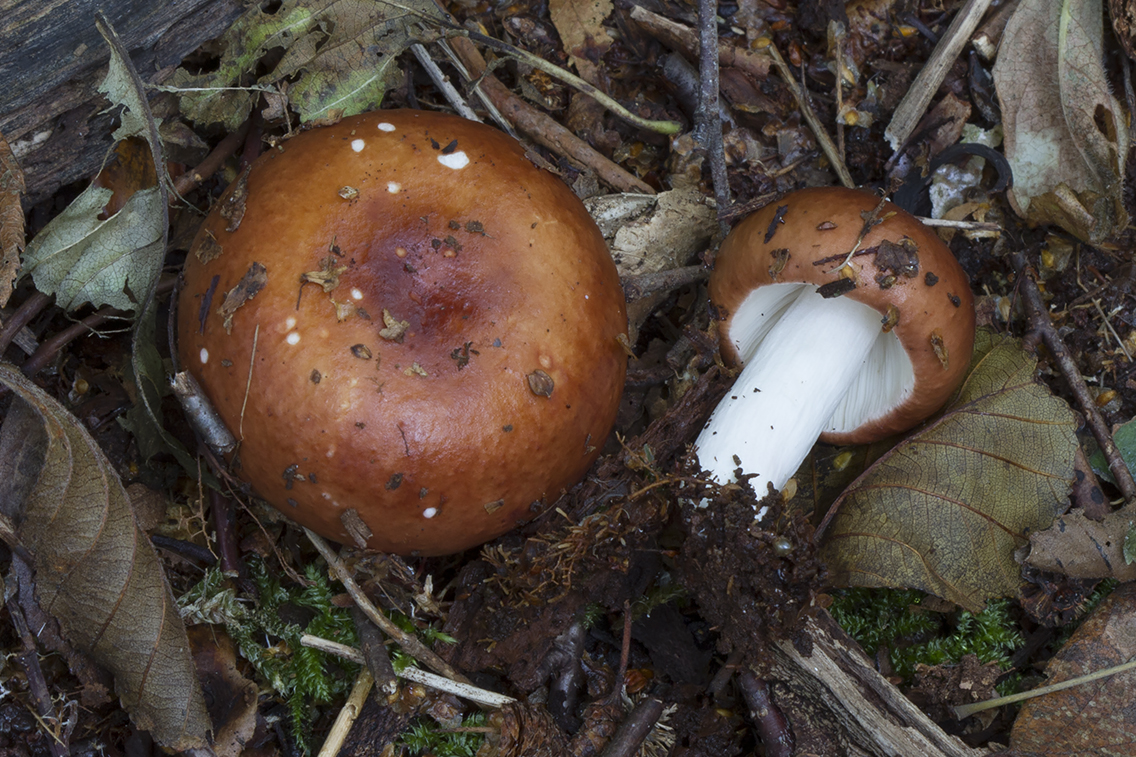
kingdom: Fungi
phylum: Basidiomycota
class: Agaricomycetes
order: Russulales
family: Russulaceae
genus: Russula
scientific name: Russula velenovskyi
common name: orangerød skørhat
